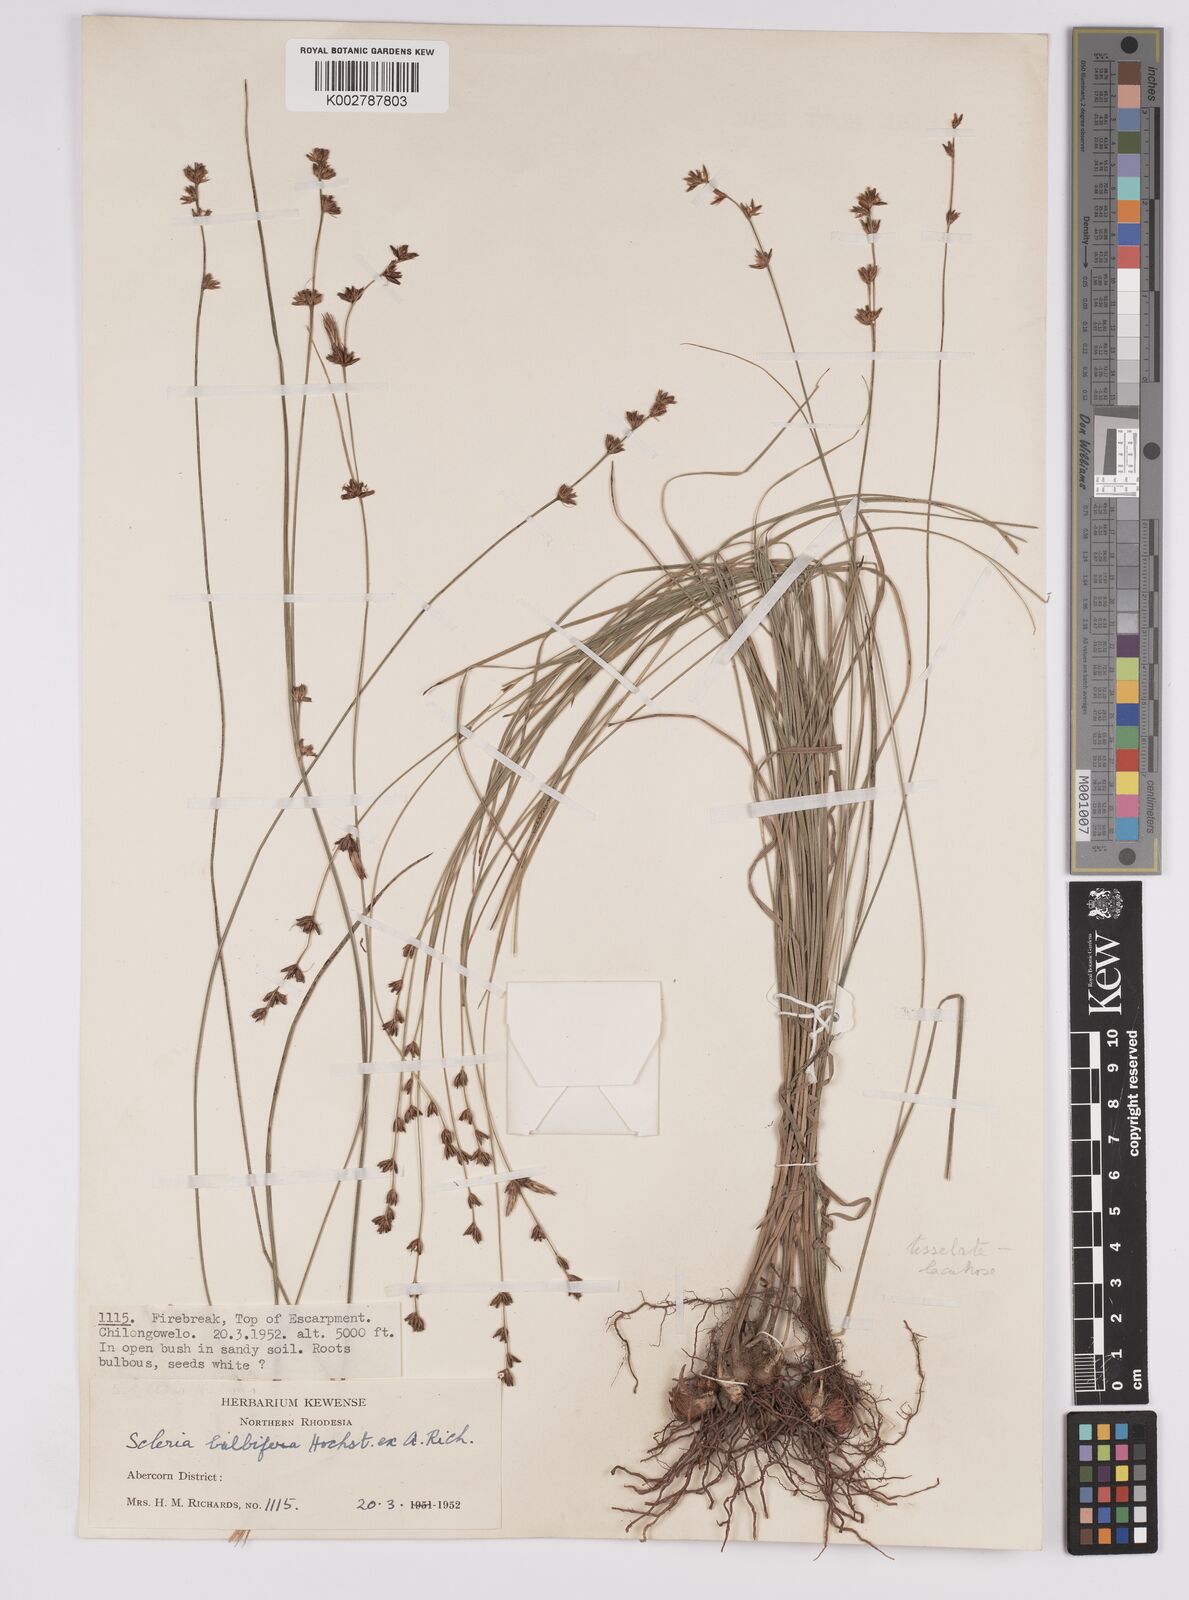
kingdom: Plantae
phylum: Tracheophyta
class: Liliopsida
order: Poales
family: Cyperaceae
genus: Scleria
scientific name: Scleria bulbifera
